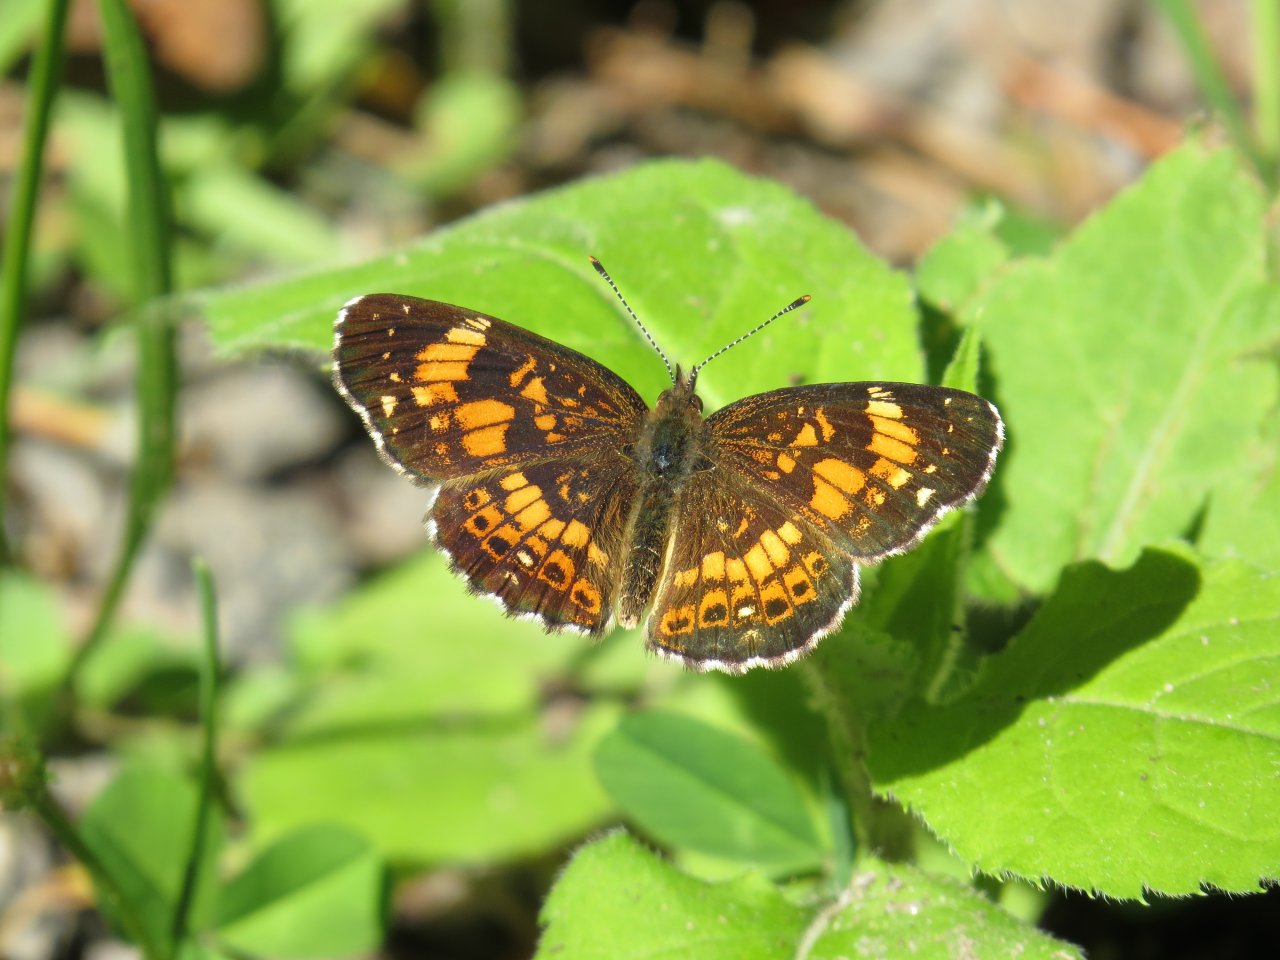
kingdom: Animalia
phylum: Arthropoda
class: Insecta
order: Lepidoptera
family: Nymphalidae
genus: Chlosyne
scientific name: Chlosyne nycteis
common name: Silvery Checkerspot
